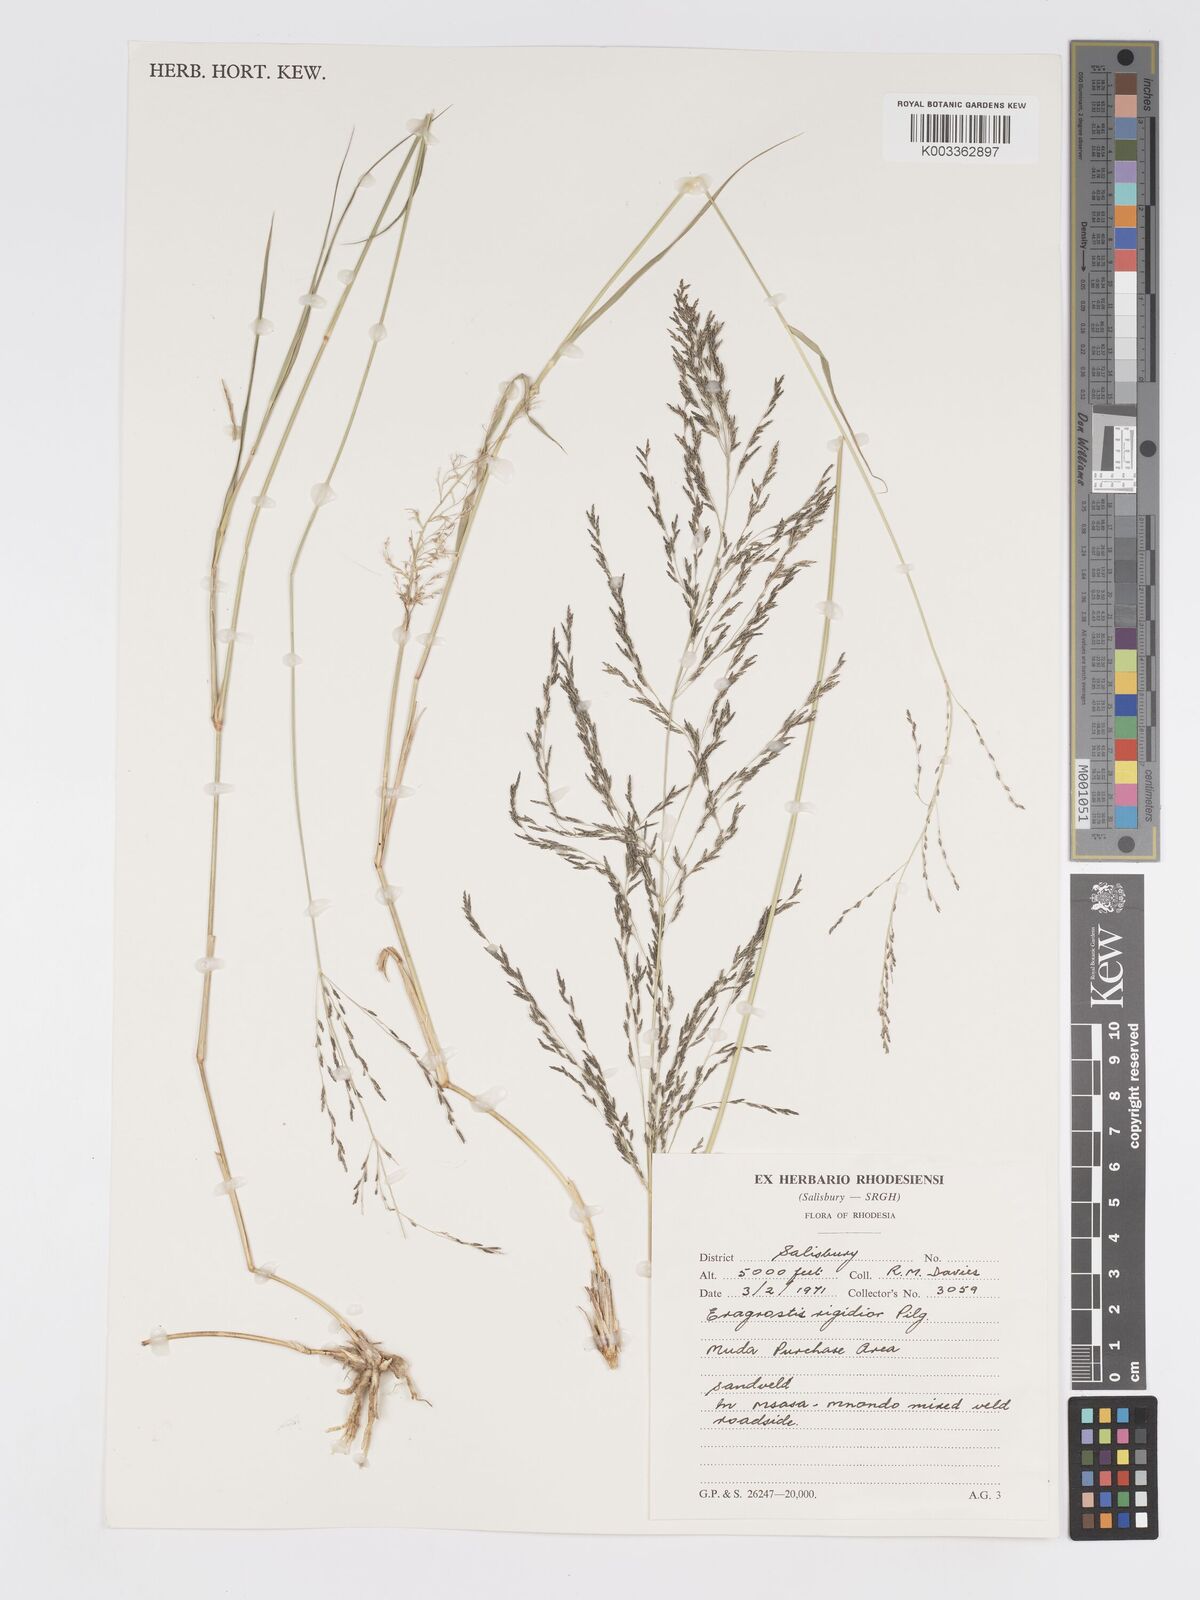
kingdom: Plantae
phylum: Tracheophyta
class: Liliopsida
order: Poales
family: Poaceae
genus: Eragrostis
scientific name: Eragrostis cylindriflora
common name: Cylinderflower lovegrass
